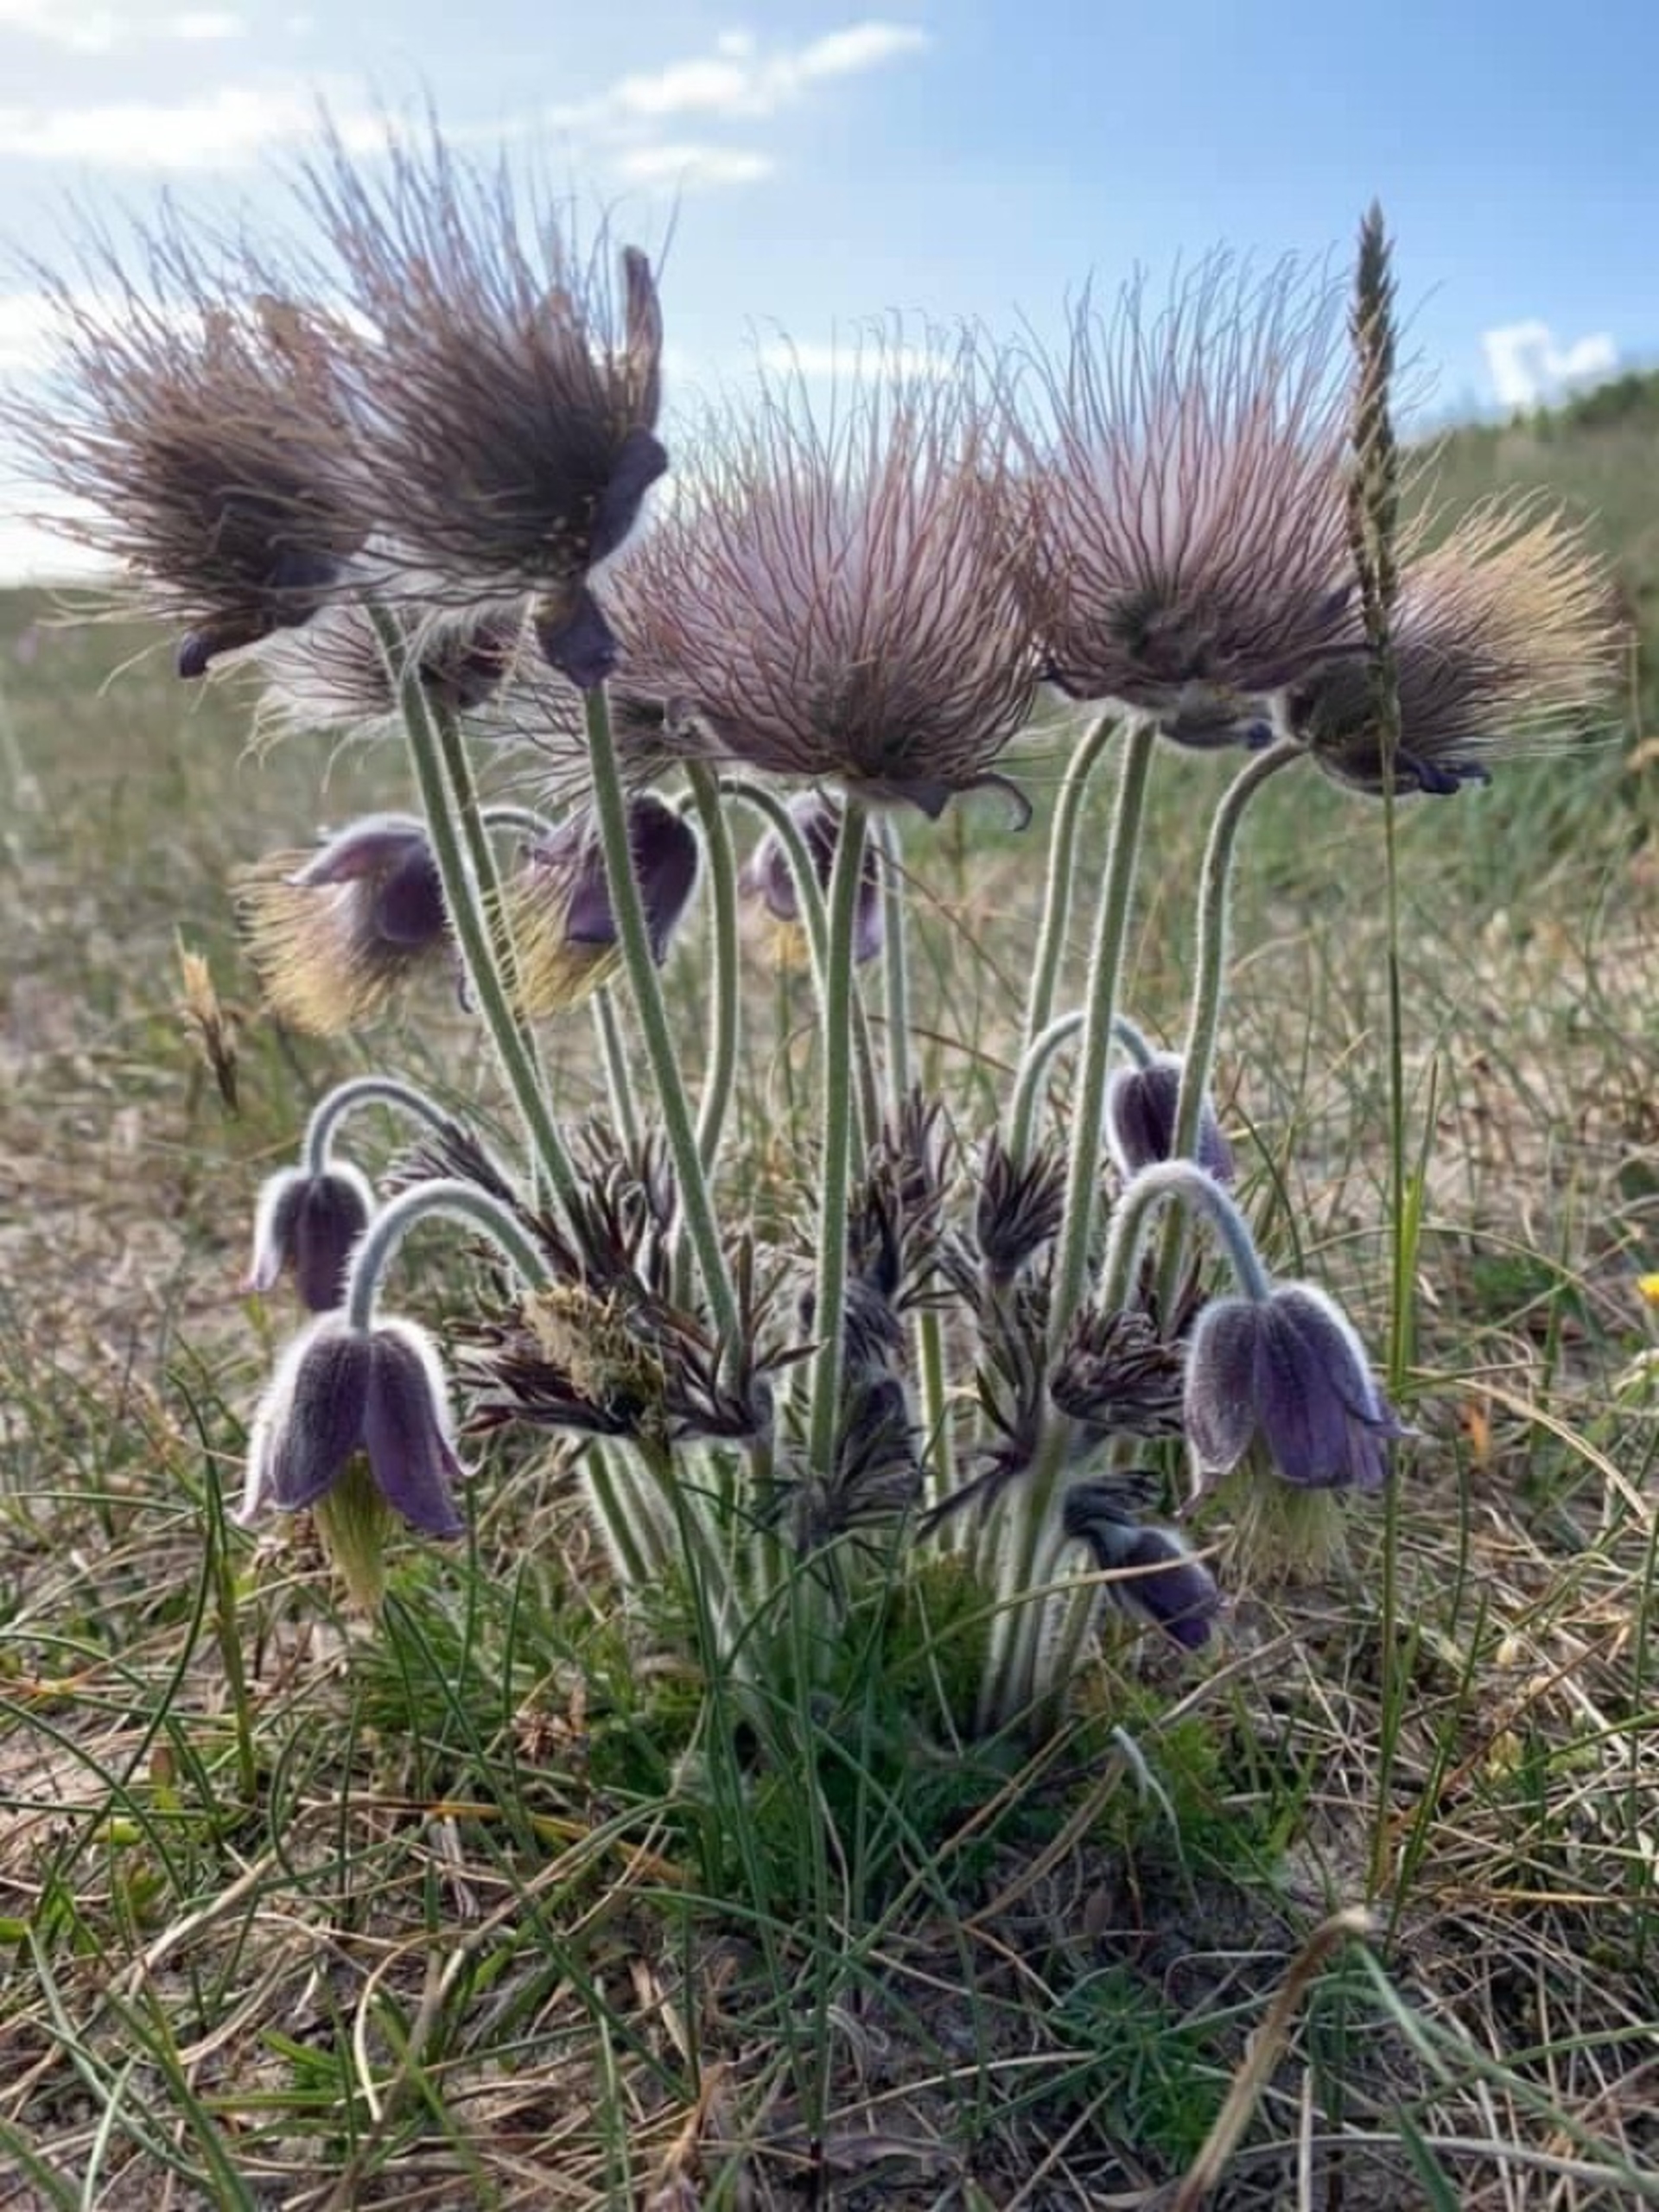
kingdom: Plantae
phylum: Tracheophyta
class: Magnoliopsida
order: Ranunculales
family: Ranunculaceae
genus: Pulsatilla
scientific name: Pulsatilla pratensis
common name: Nikkende kobjælde
